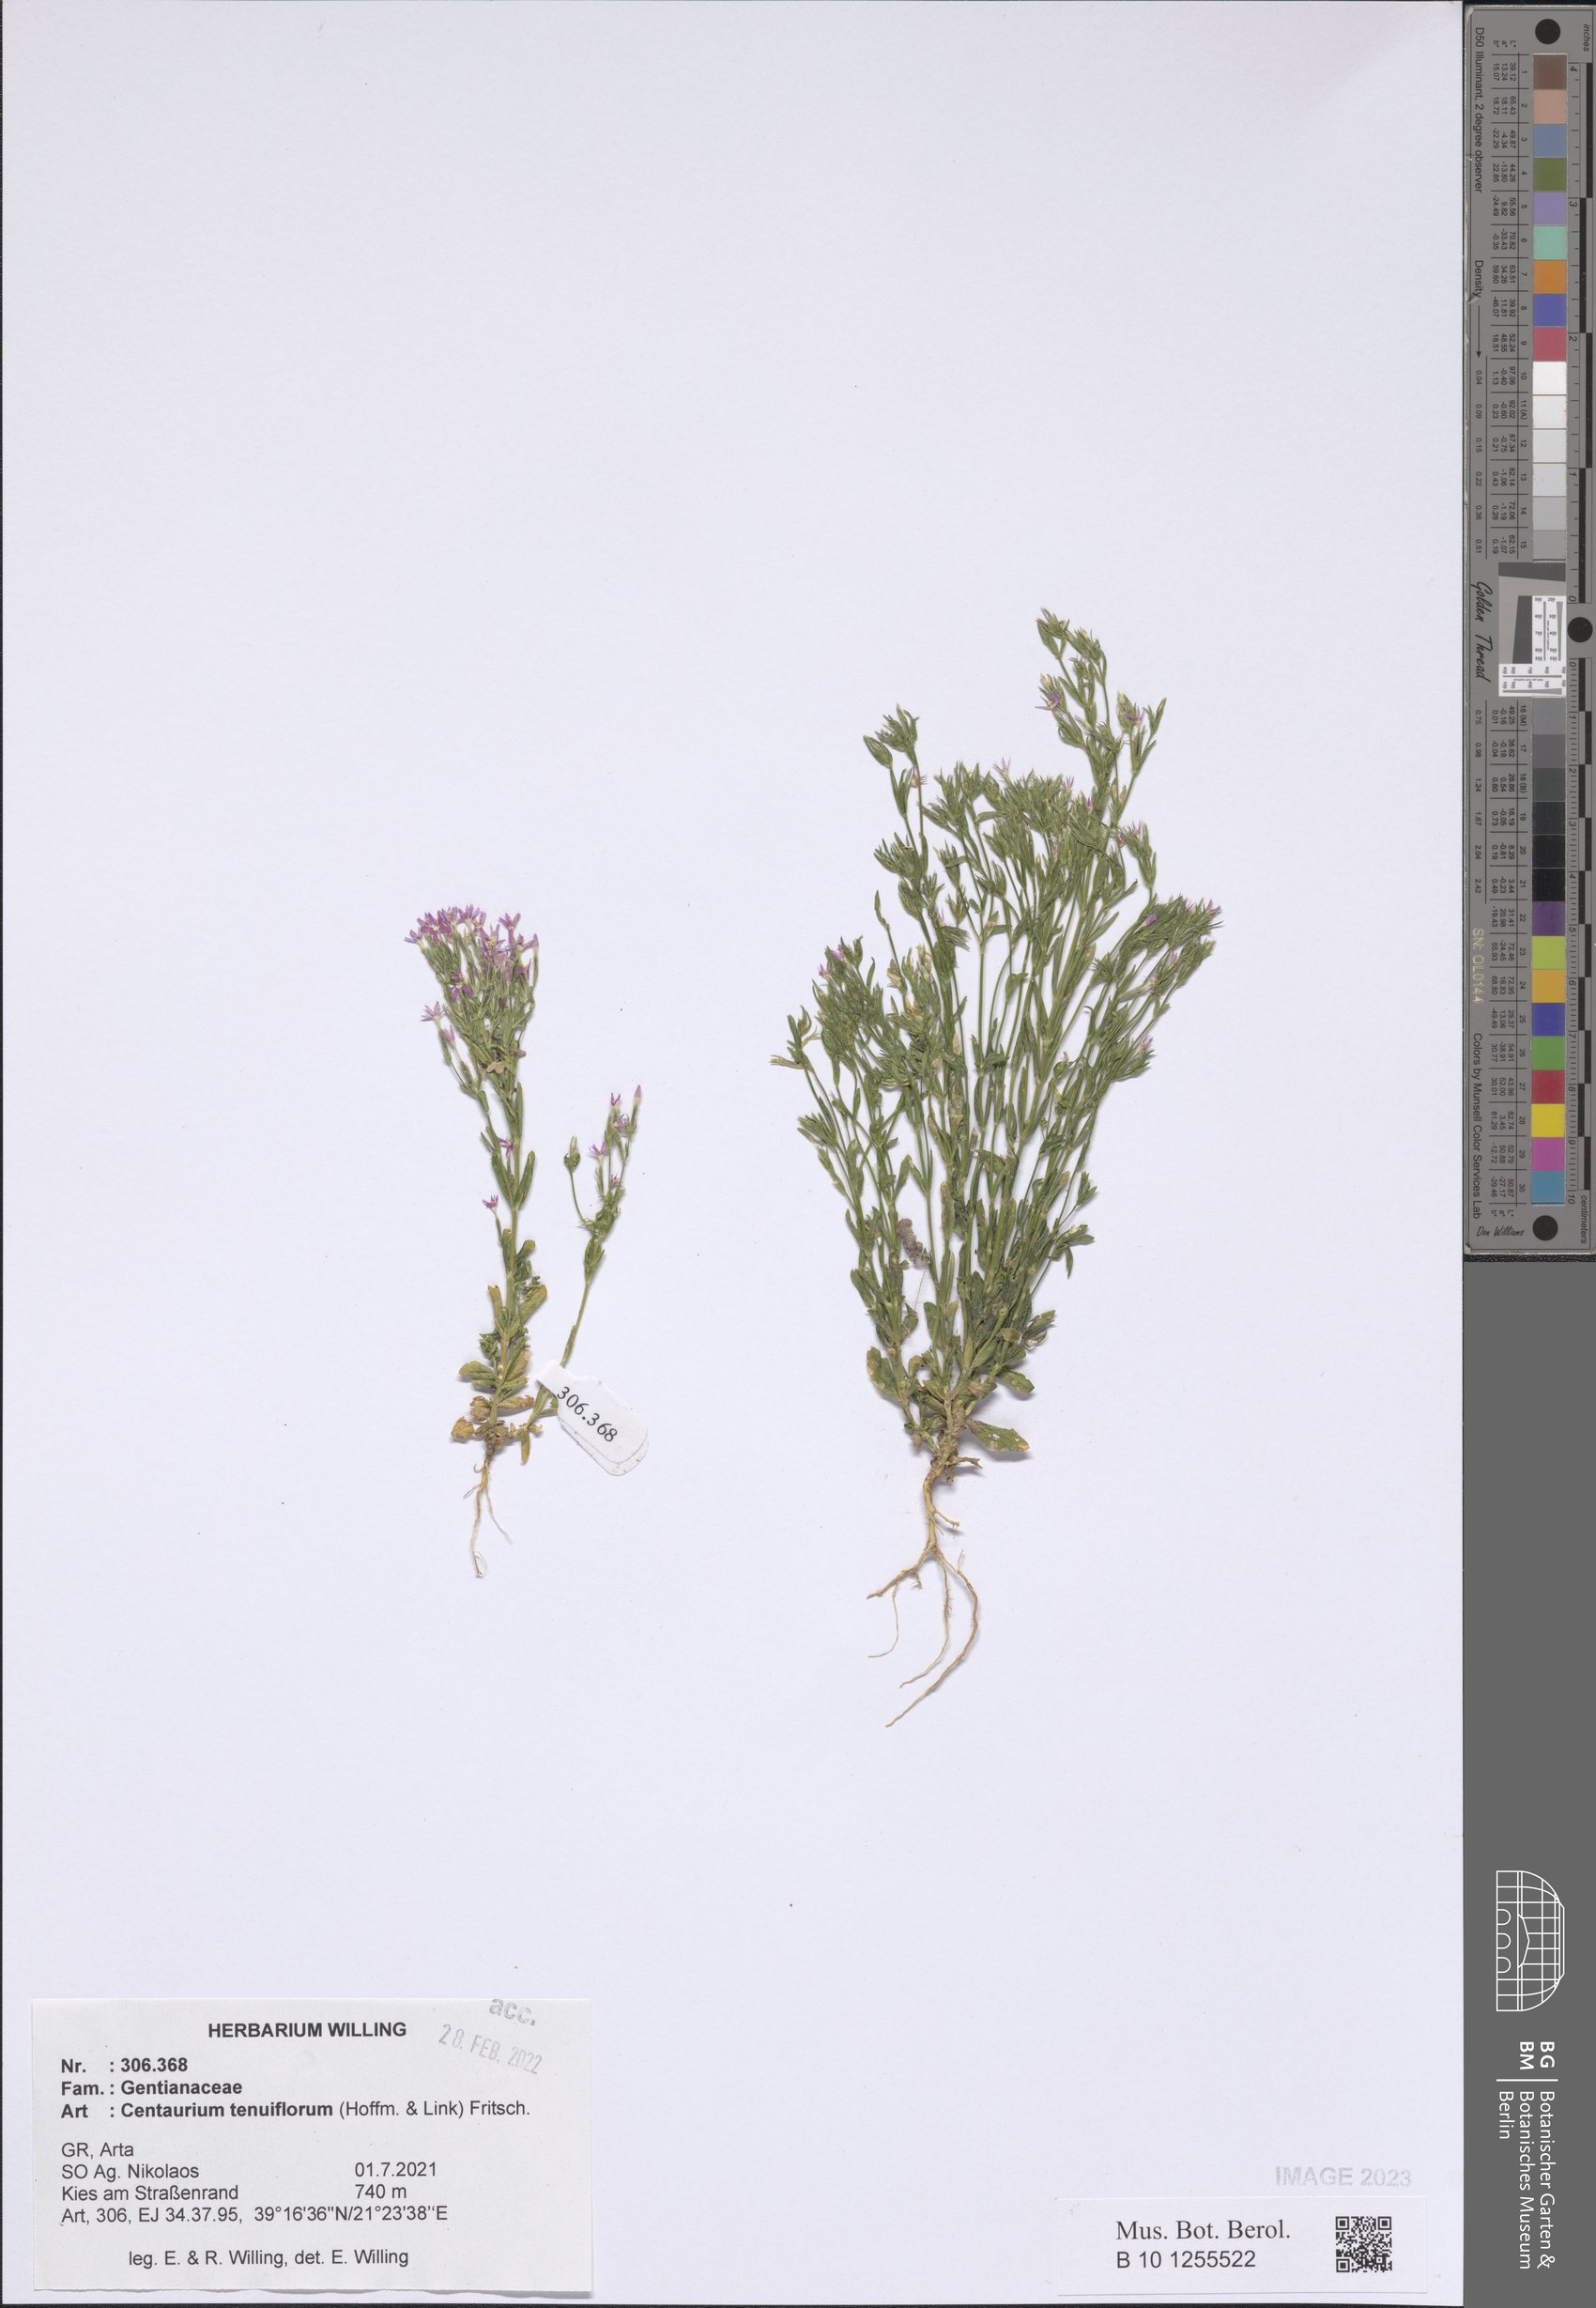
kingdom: Plantae
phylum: Tracheophyta
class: Magnoliopsida
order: Gentianales
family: Gentianaceae
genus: Centaurium
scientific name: Centaurium tenuiflorum
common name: Slender centaury
